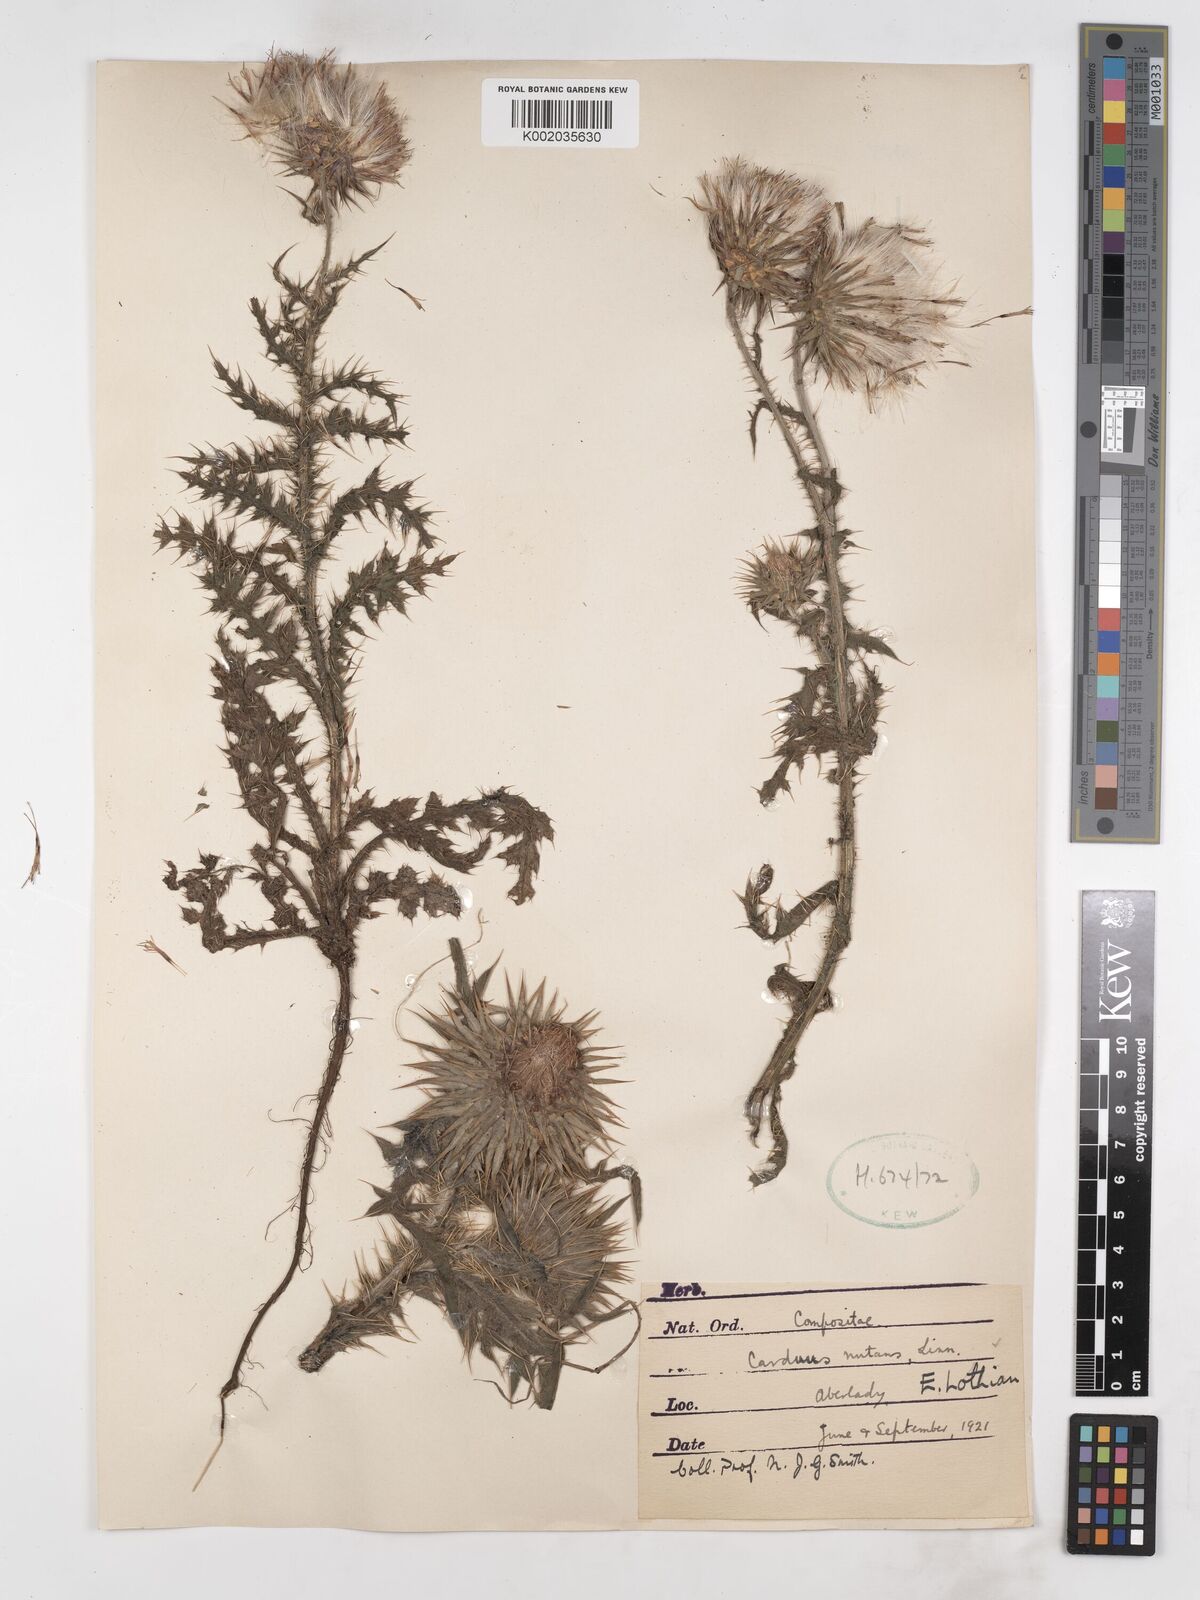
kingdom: Plantae
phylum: Tracheophyta
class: Magnoliopsida
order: Asterales
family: Asteraceae
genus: Carduus
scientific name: Carduus nutans
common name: Musk thistle
